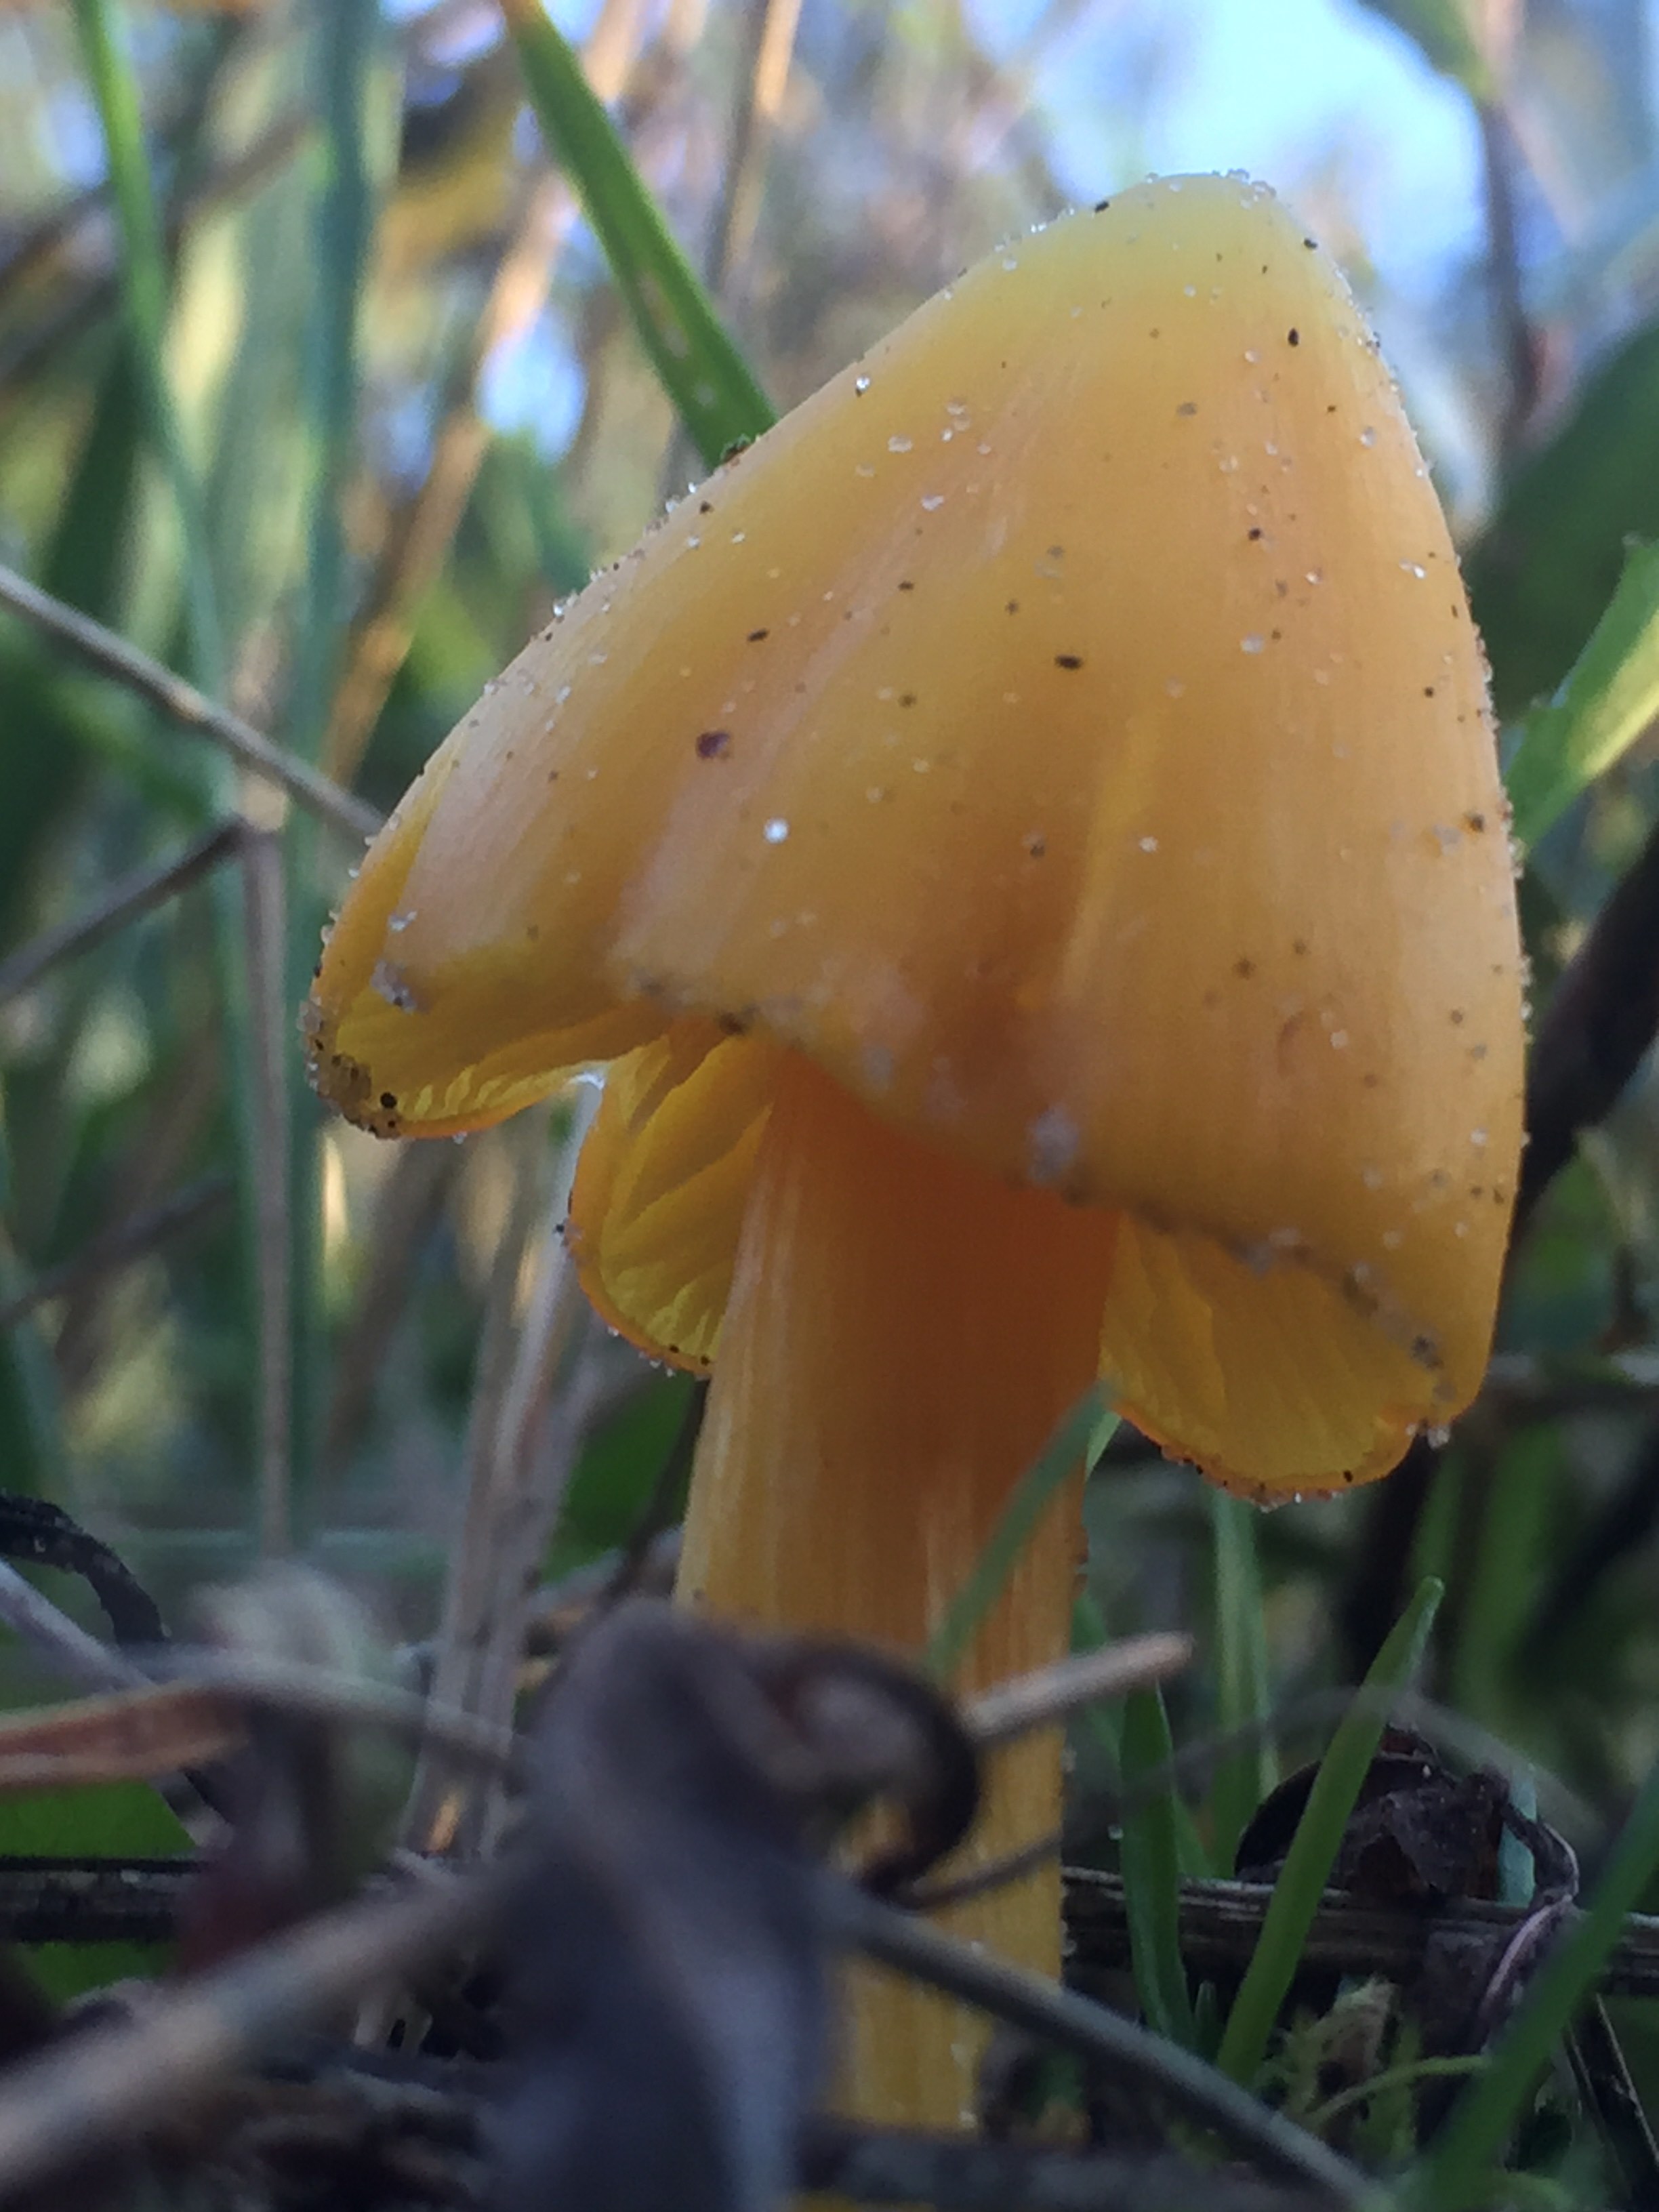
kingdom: Fungi
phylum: Basidiomycota
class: Agaricomycetes
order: Agaricales
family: Hygrophoraceae
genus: Hygrocybe
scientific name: Hygrocybe
